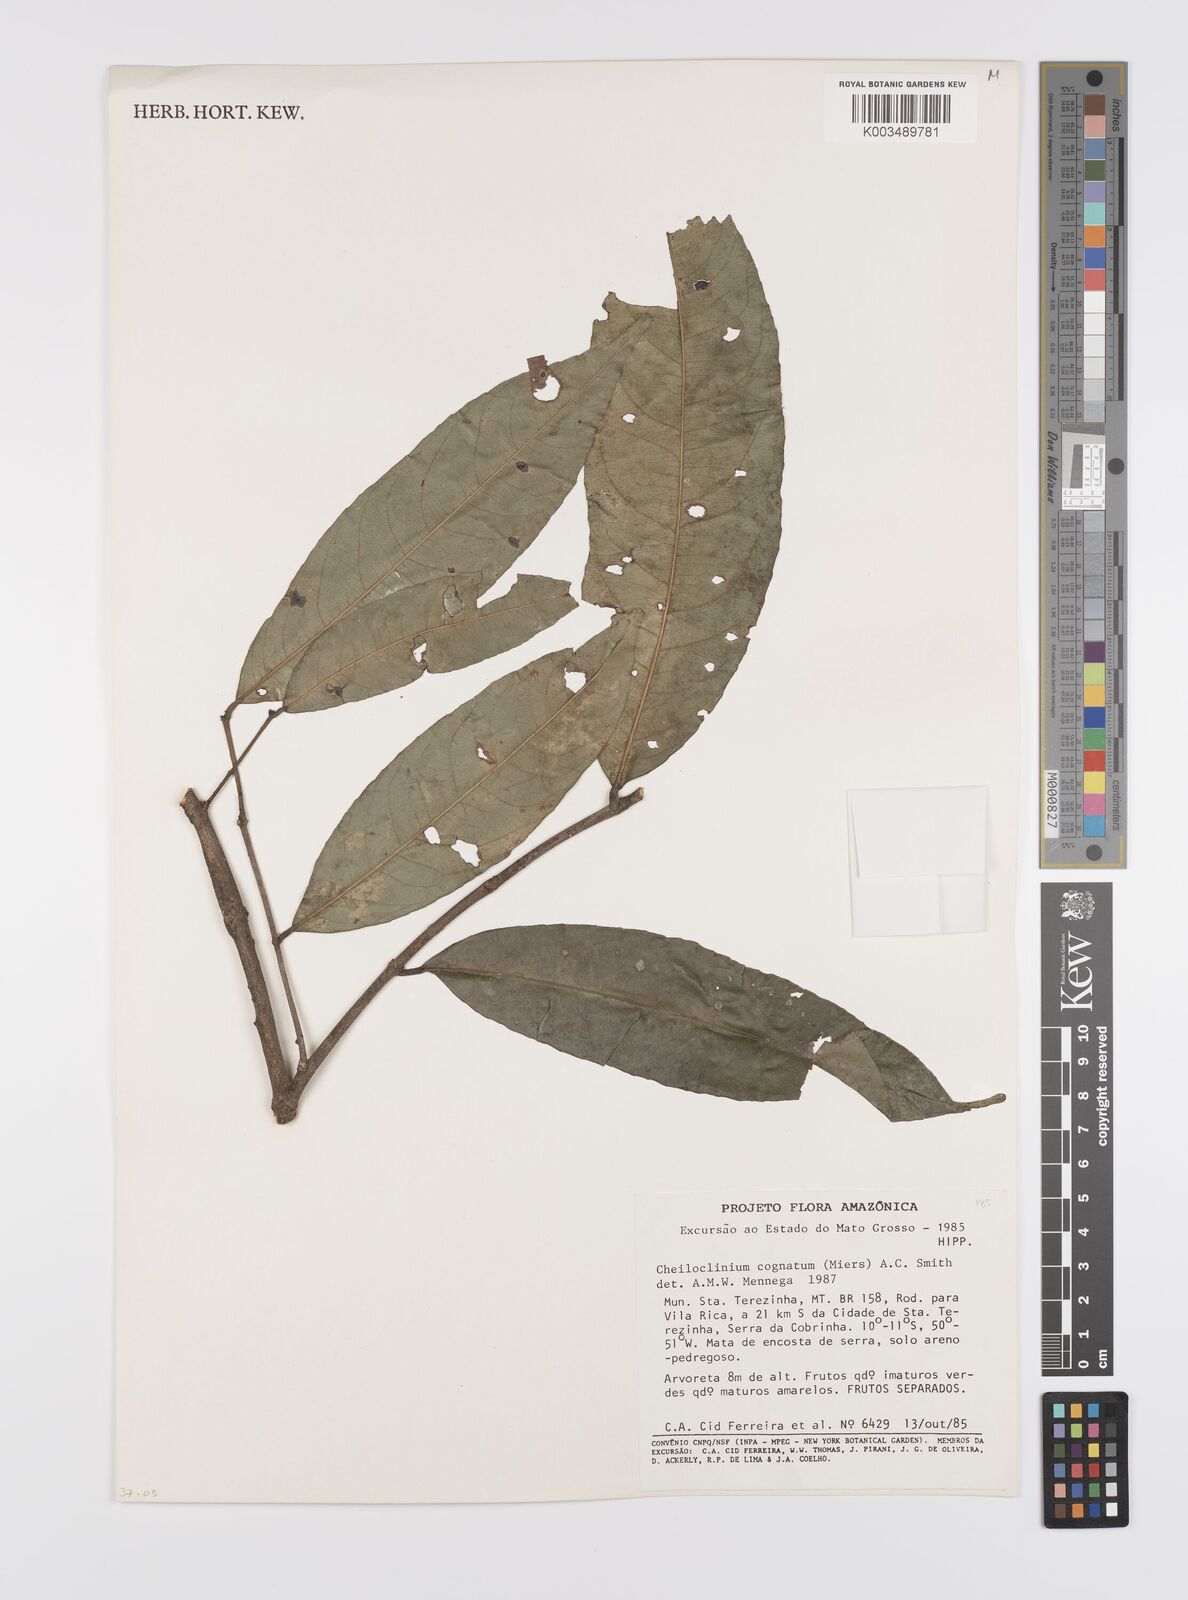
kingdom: Plantae
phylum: Tracheophyta
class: Magnoliopsida
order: Celastrales
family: Celastraceae
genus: Cheiloclinium
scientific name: Cheiloclinium cognatum
